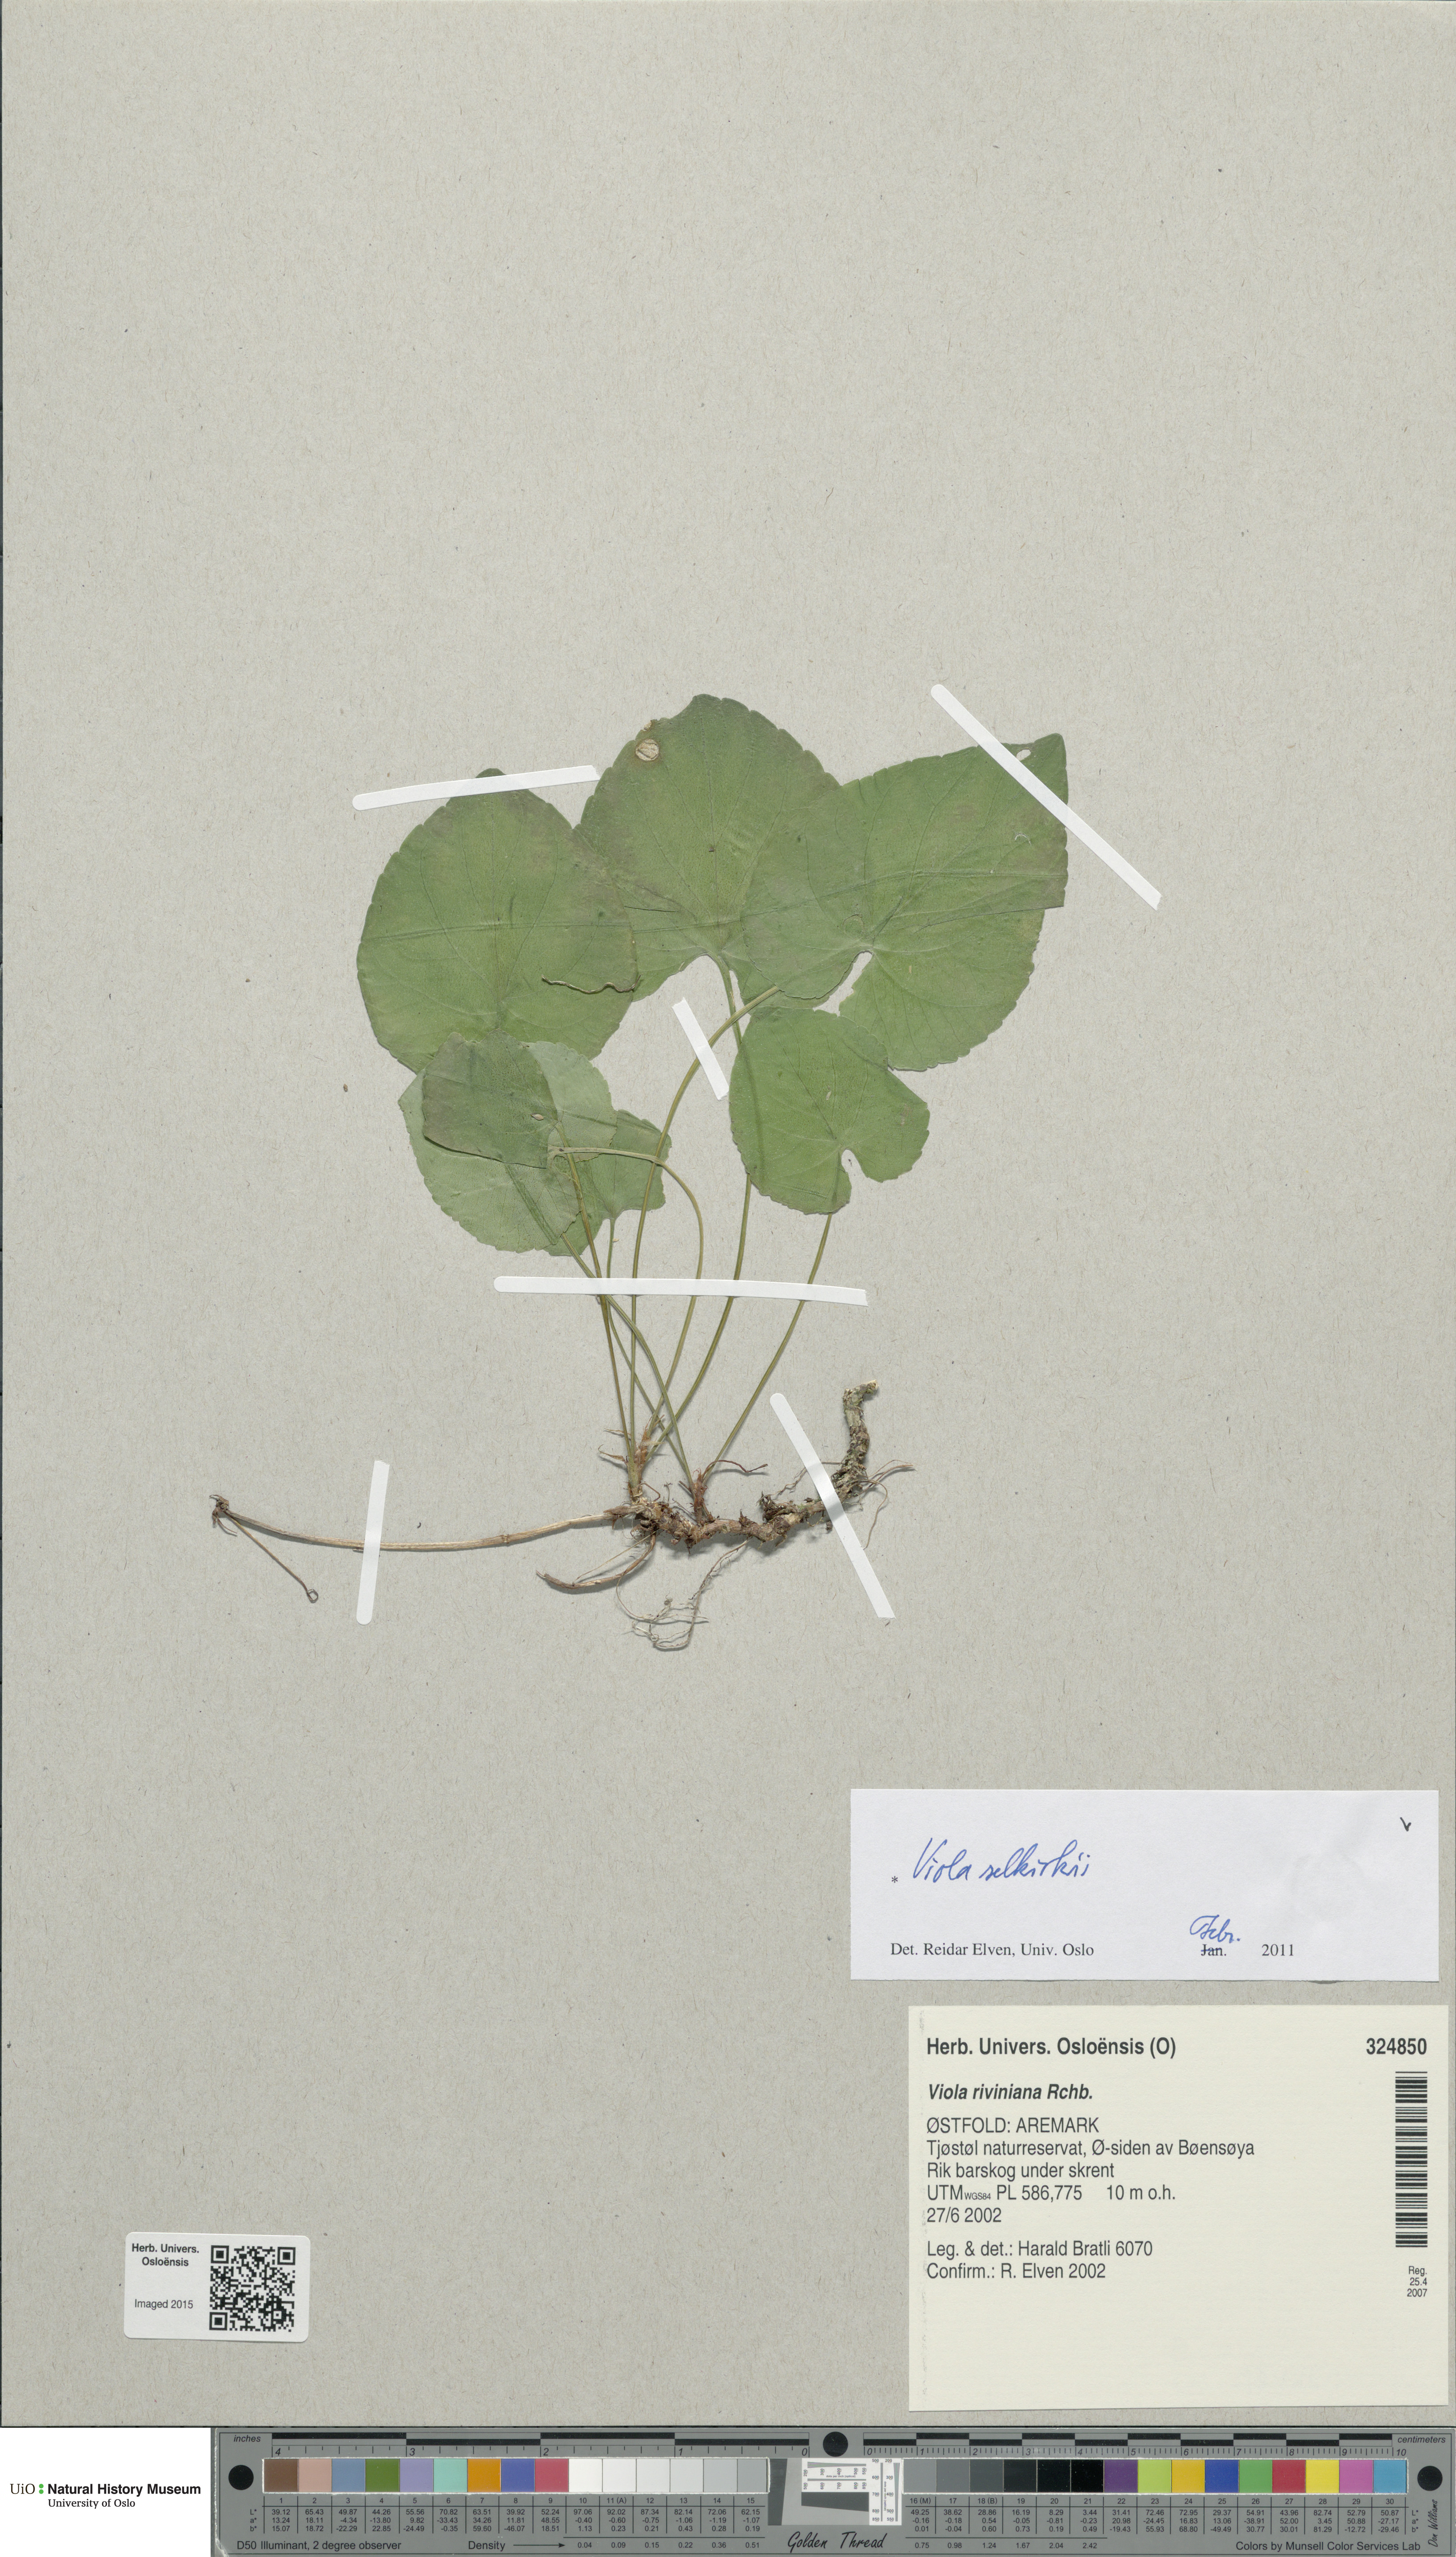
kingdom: Plantae
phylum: Tracheophyta
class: Magnoliopsida
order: Malpighiales
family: Violaceae
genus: Viola
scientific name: Viola selkirkii
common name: Selkirk's violet
